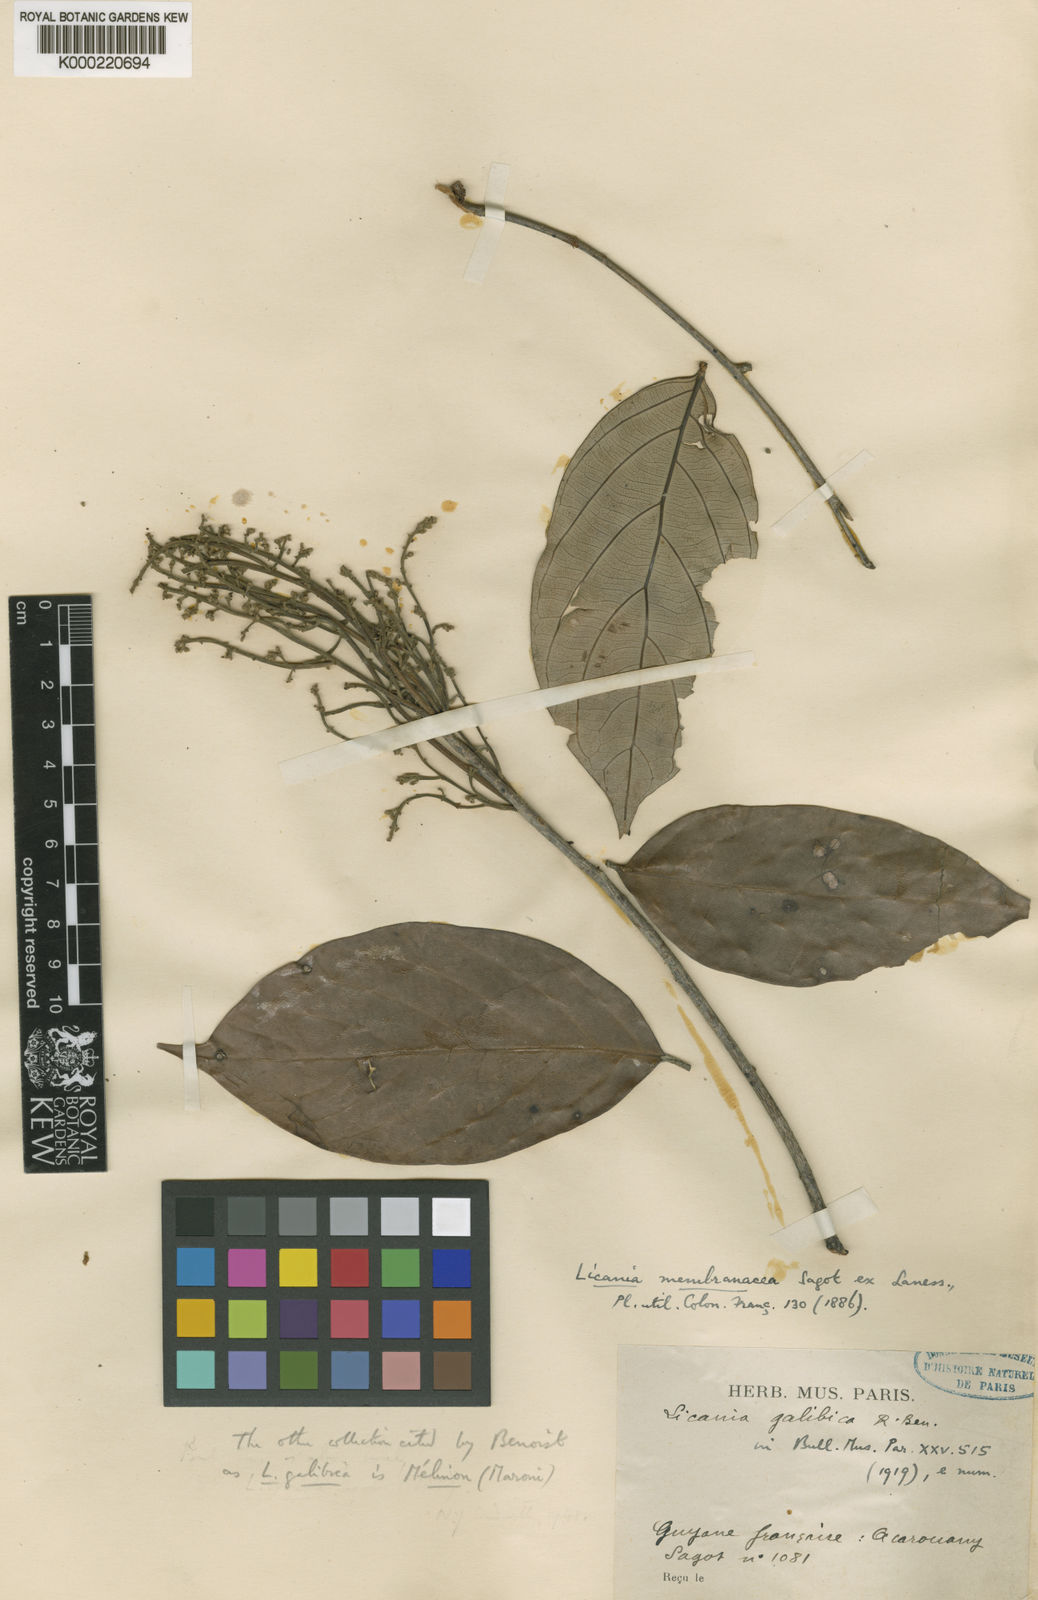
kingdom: Plantae
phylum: Tracheophyta
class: Magnoliopsida
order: Malpighiales
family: Chrysobalanaceae
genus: Licania
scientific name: Licania membranacea
